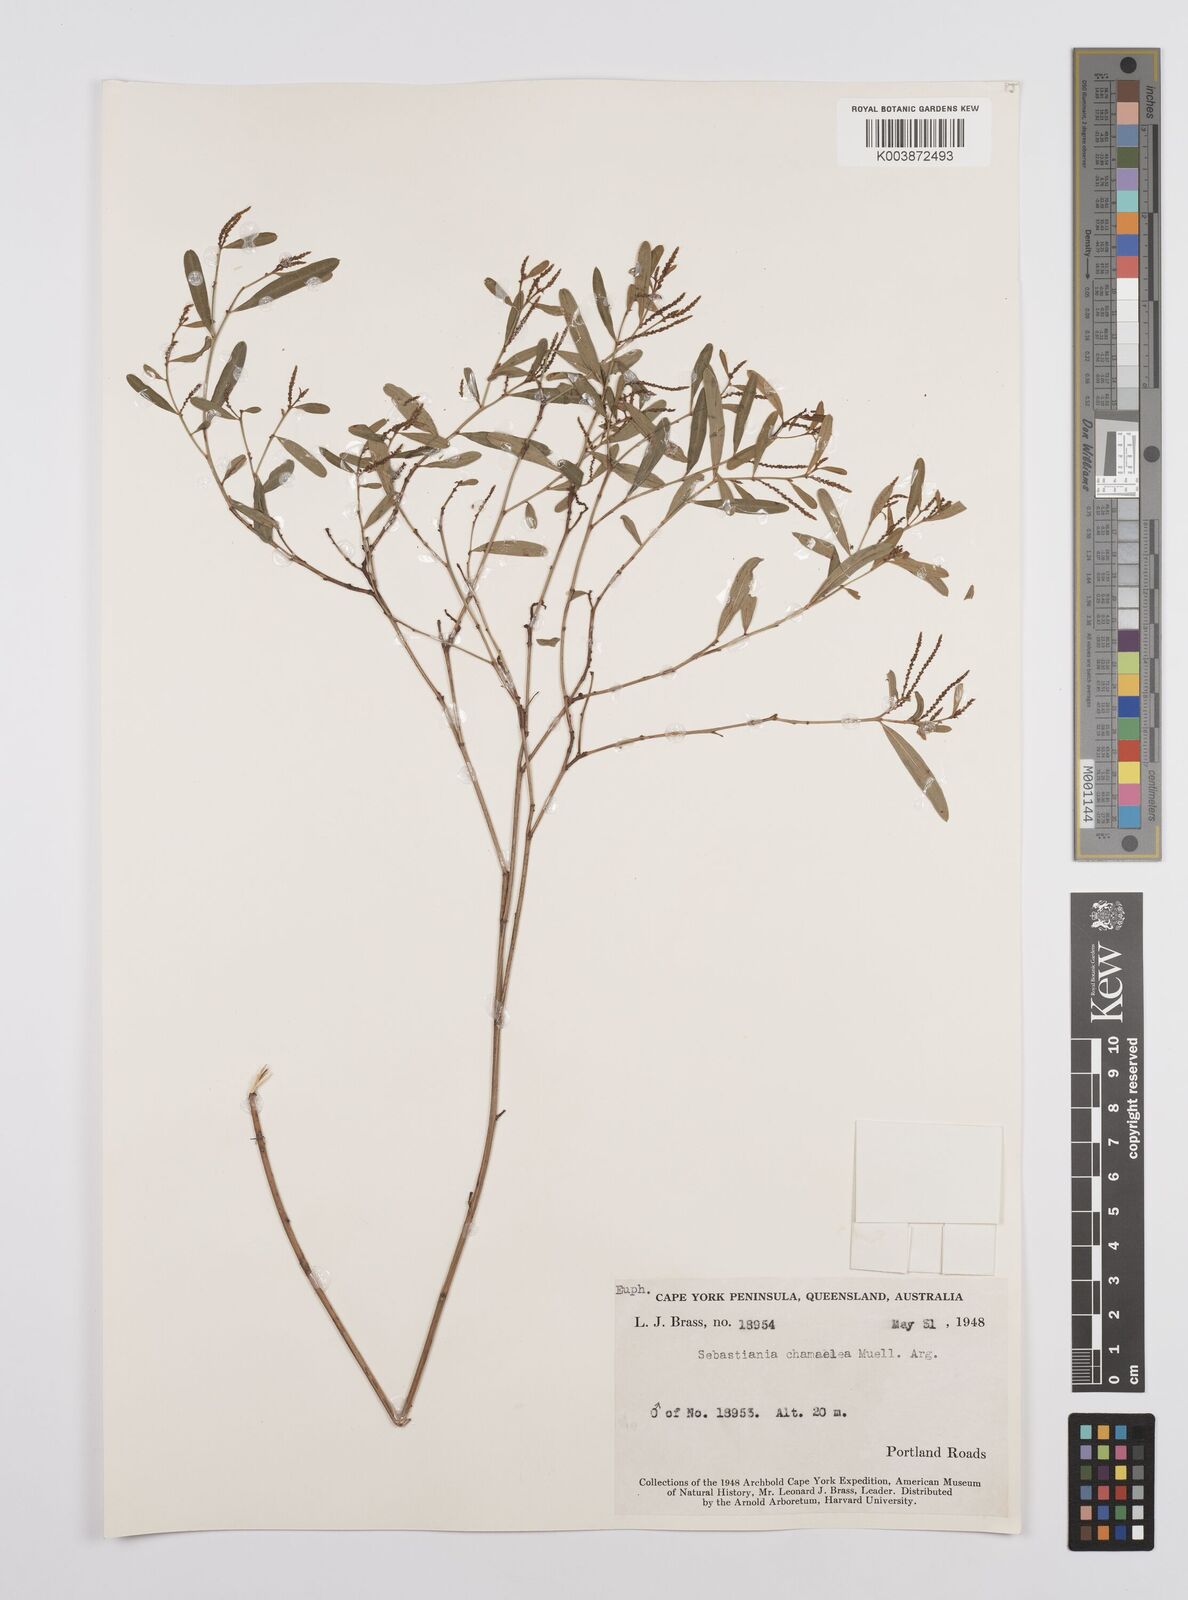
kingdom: Plantae
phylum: Tracheophyta
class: Magnoliopsida
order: Malpighiales
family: Euphorbiaceae
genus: Microstachys
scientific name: Microstachys chamaelea
